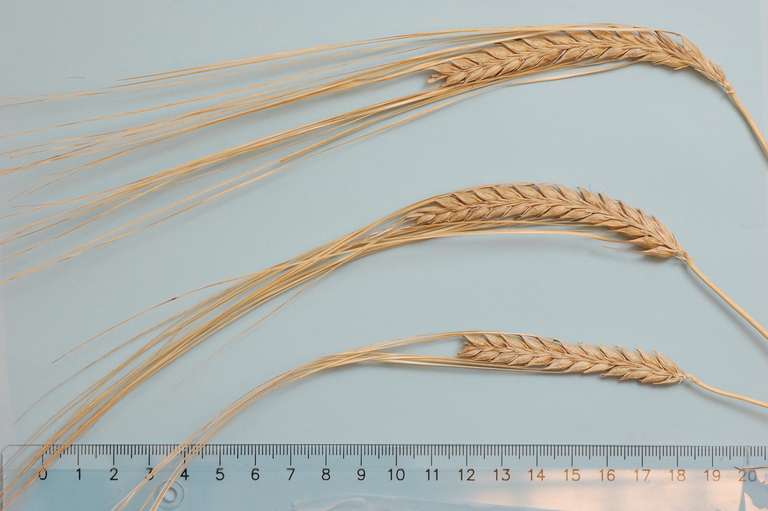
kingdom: Plantae
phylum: Tracheophyta
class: Liliopsida
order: Poales
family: Poaceae
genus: Hordeum
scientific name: Hordeum vulgare
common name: Common barley
